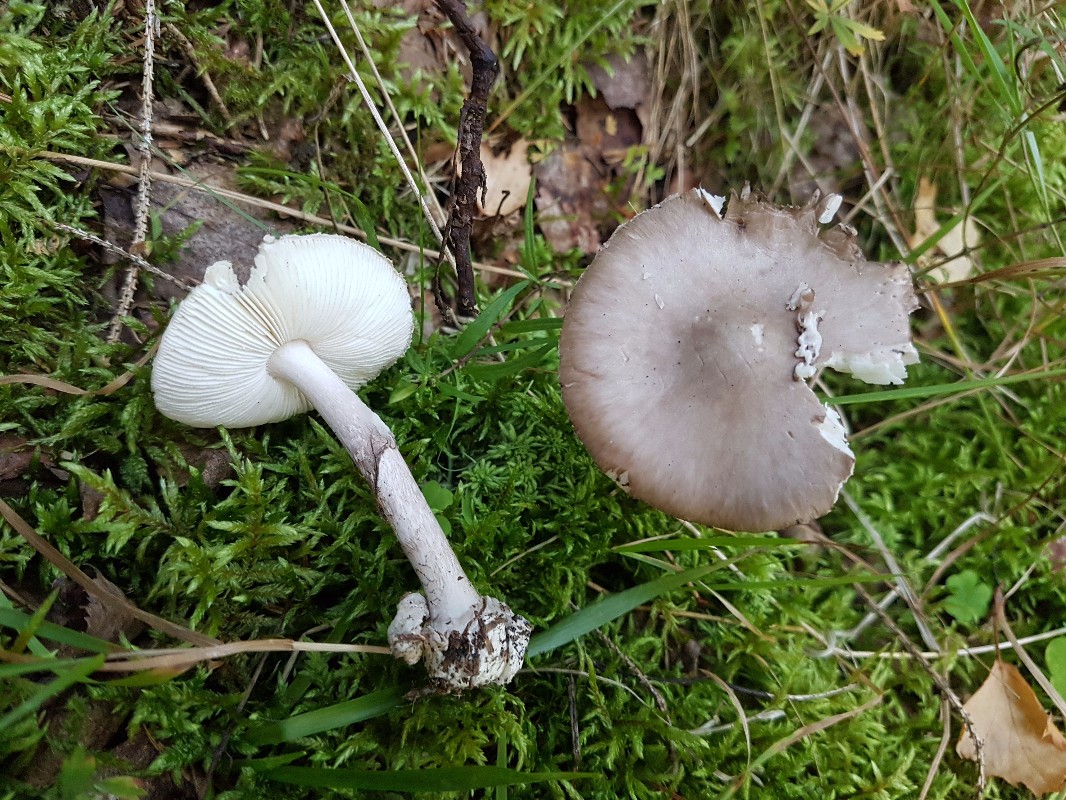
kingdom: Fungi
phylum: Basidiomycota
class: Agaricomycetes
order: Agaricales
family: Amanitaceae
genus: Amanita
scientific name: Amanita porphyria
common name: porfyr-fluesvamp
